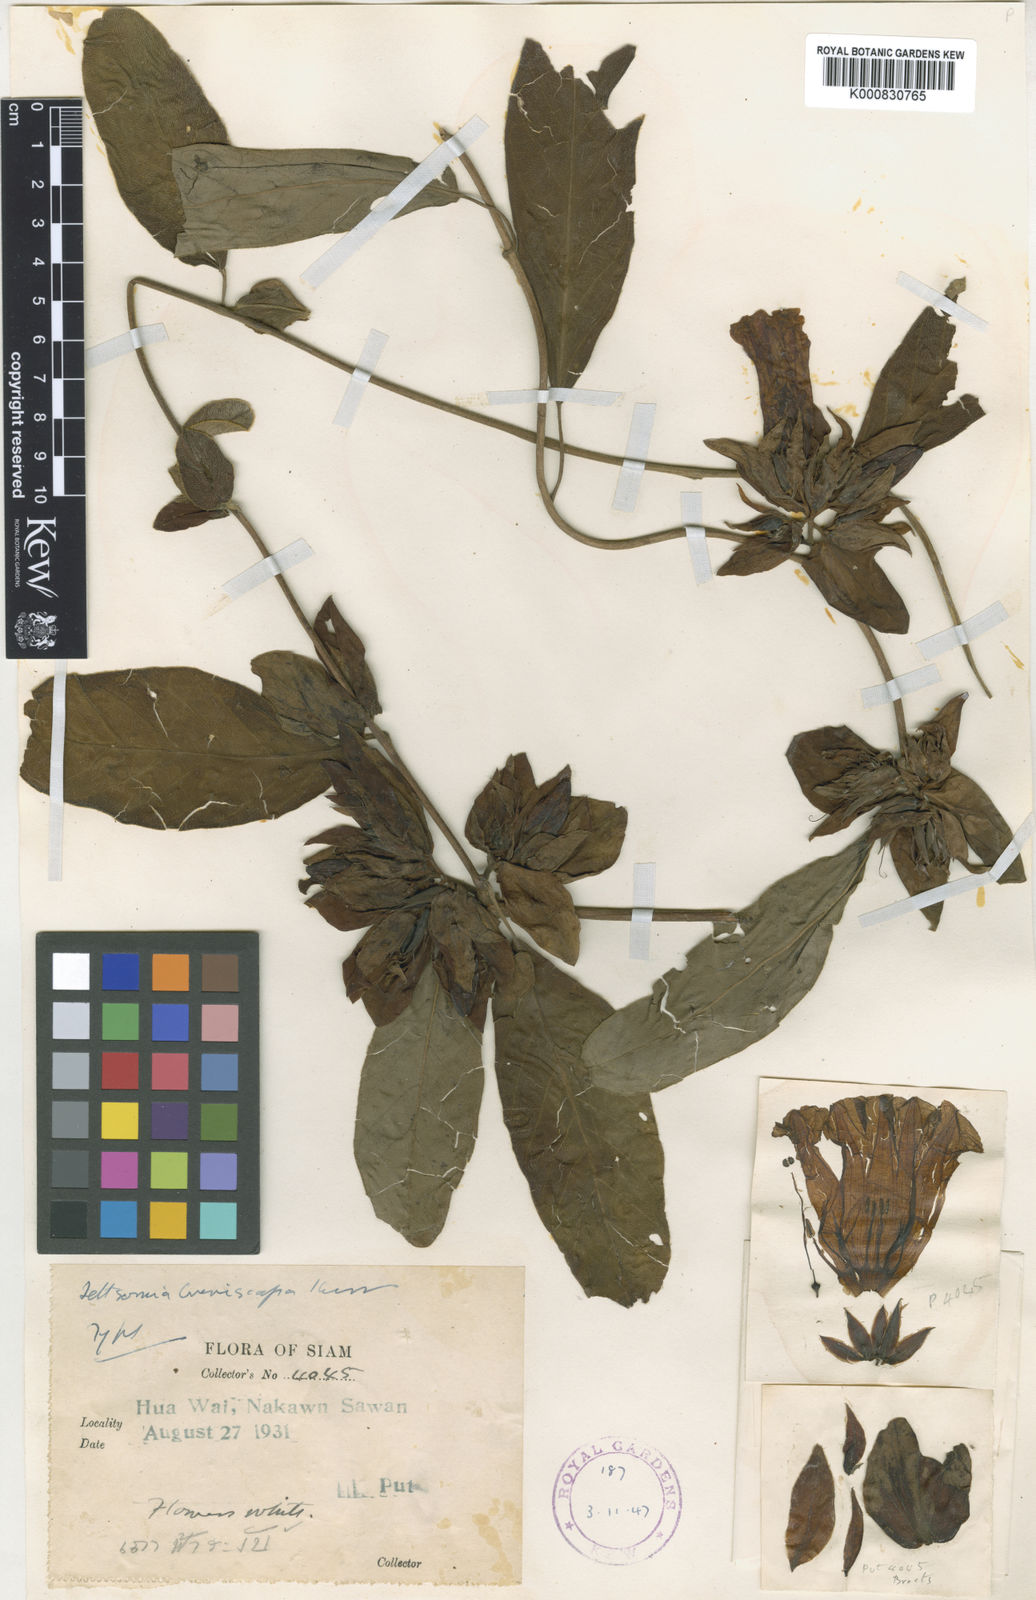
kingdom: Plantae
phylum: Tracheophyta
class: Magnoliopsida
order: Solanales
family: Convolvulaceae
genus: Argyreia
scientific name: Argyreia breviscapa
